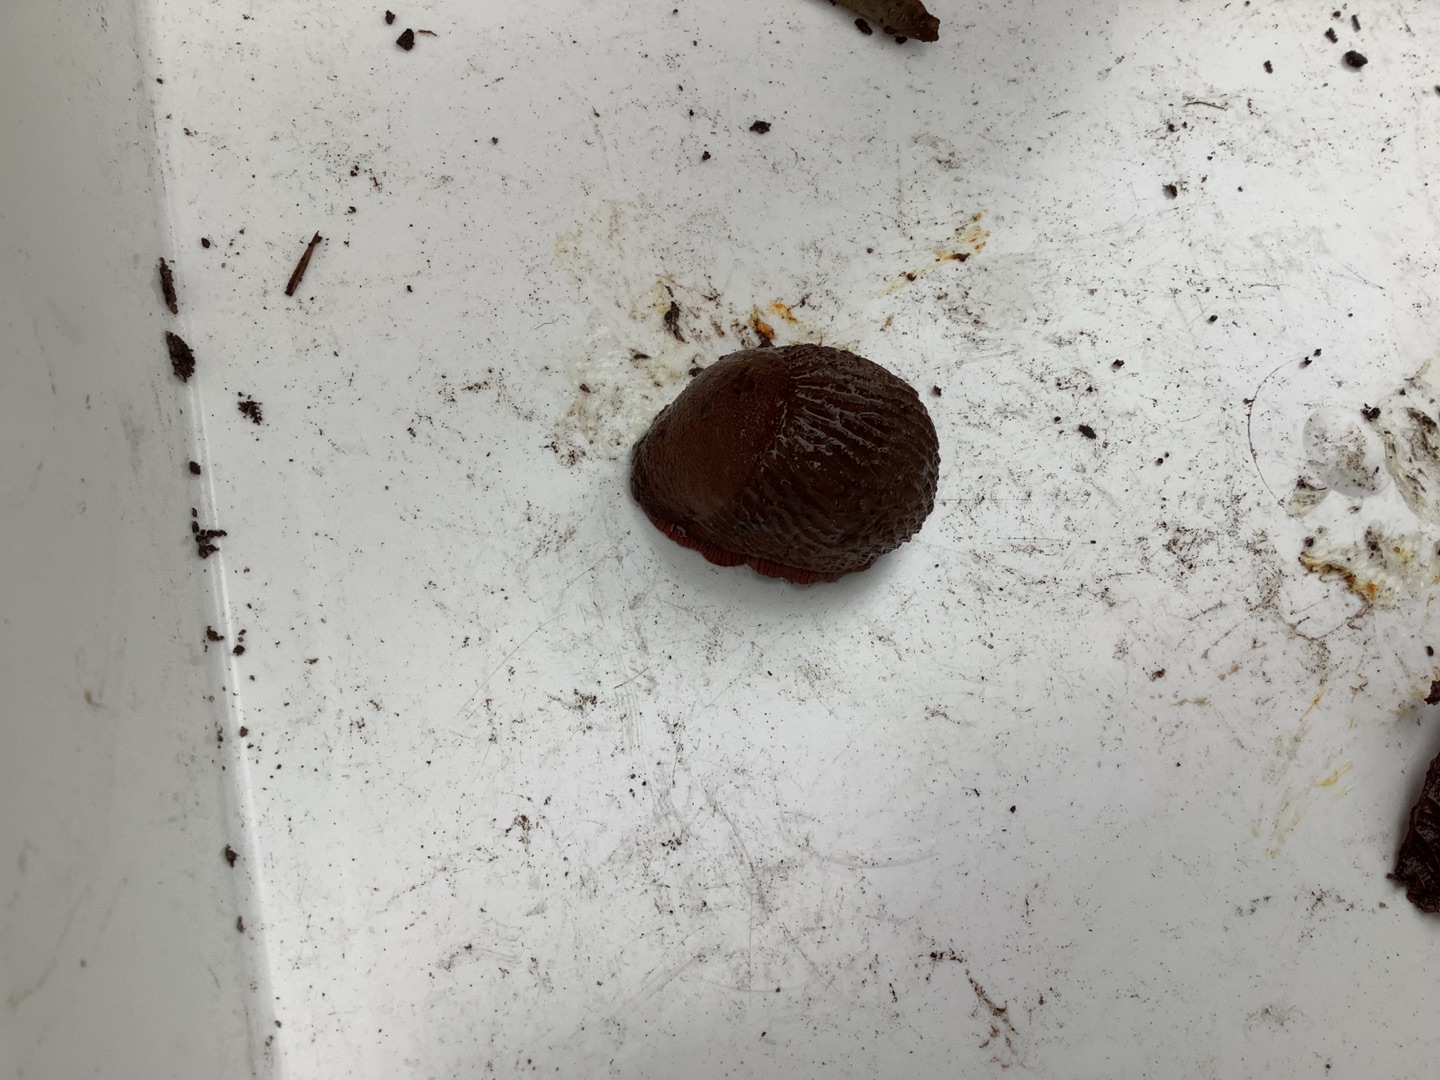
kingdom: Animalia
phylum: Mollusca
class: Gastropoda
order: Stylommatophora
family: Arionidae
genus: Arion
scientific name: Arion
